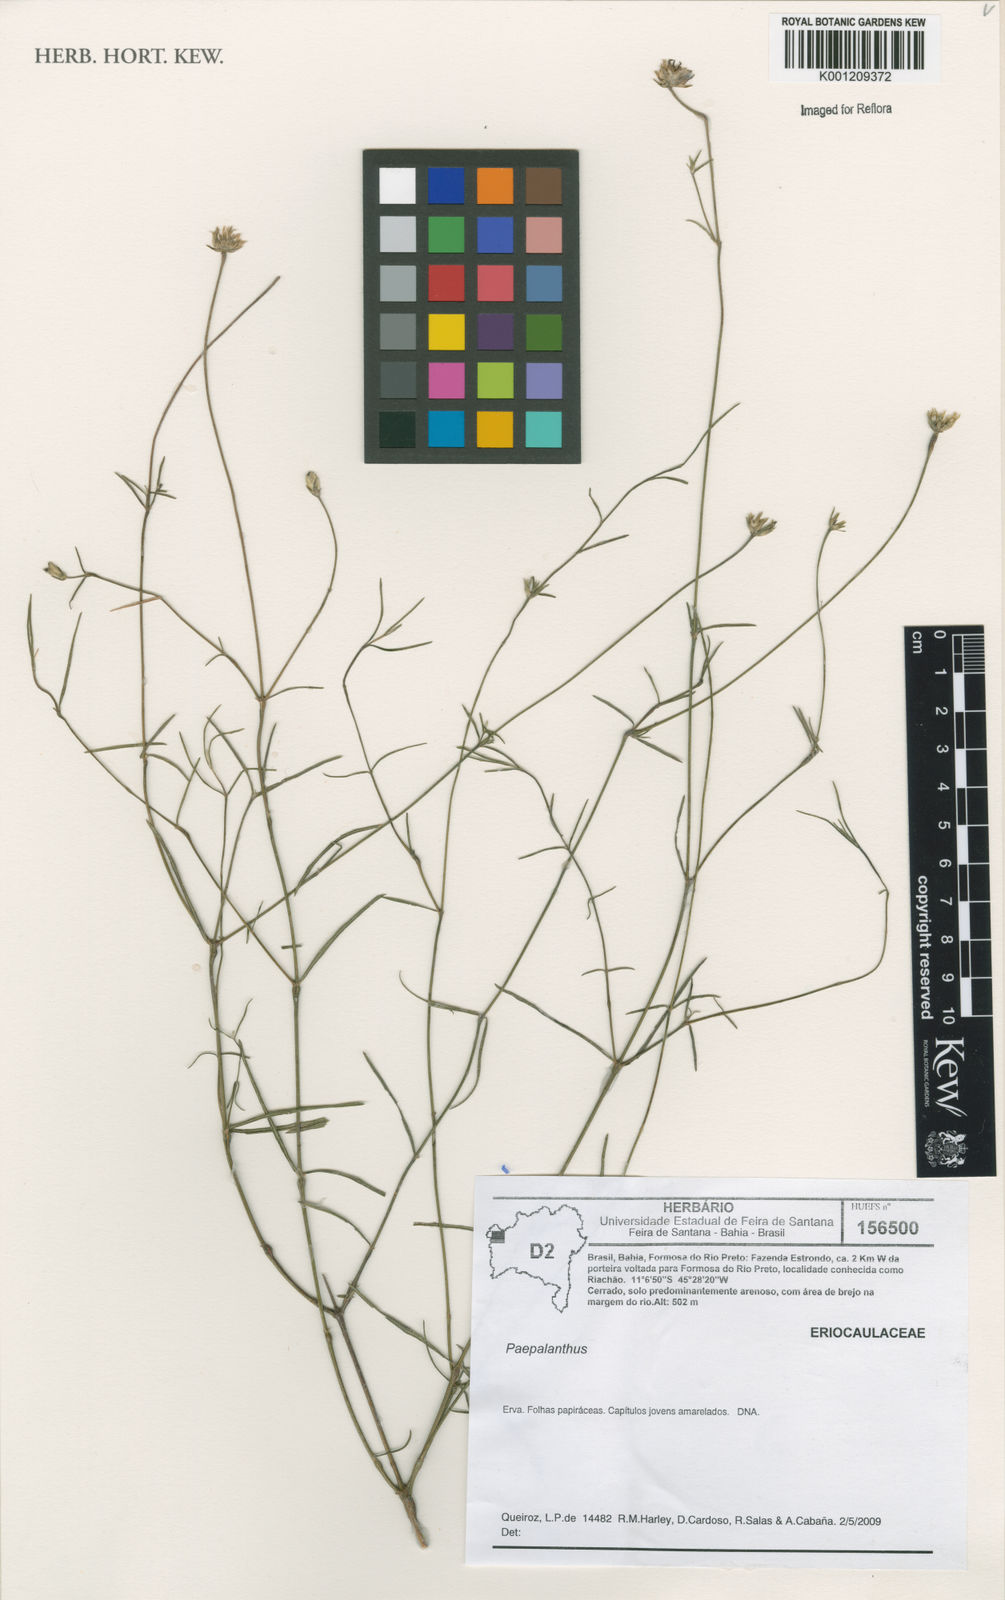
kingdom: Plantae
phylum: Tracheophyta
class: Magnoliopsida
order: Caryophyllales
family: Amaranthaceae
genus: Xerosiphon
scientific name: Xerosiphon
